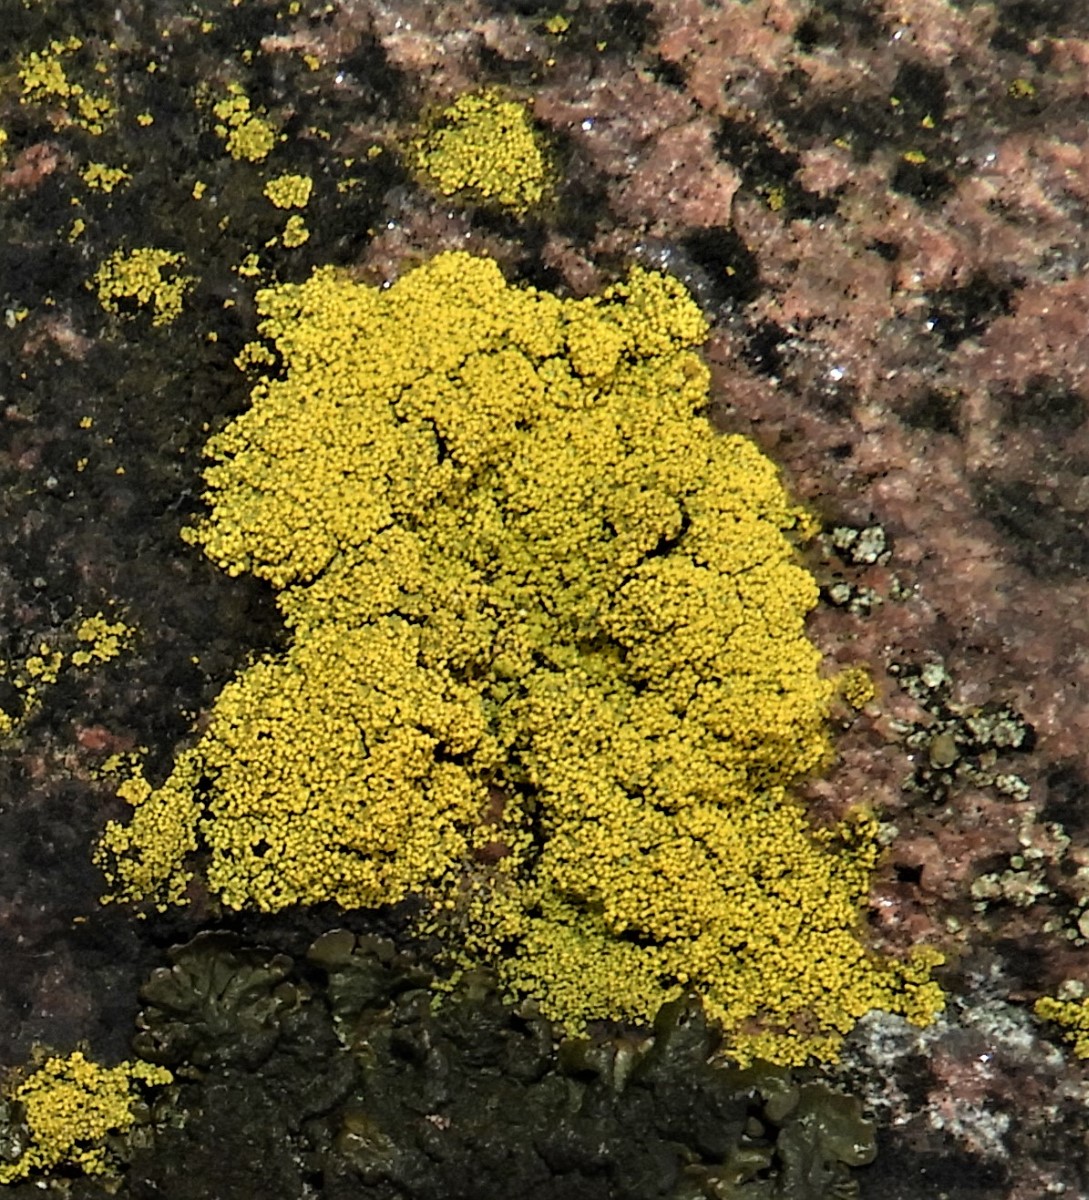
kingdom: Fungi
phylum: Ascomycota
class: Candelariomycetes
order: Candelariales
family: Candelariaceae
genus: Candelariella
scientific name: Candelariella vitellina
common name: almindelig æggeblommelav
